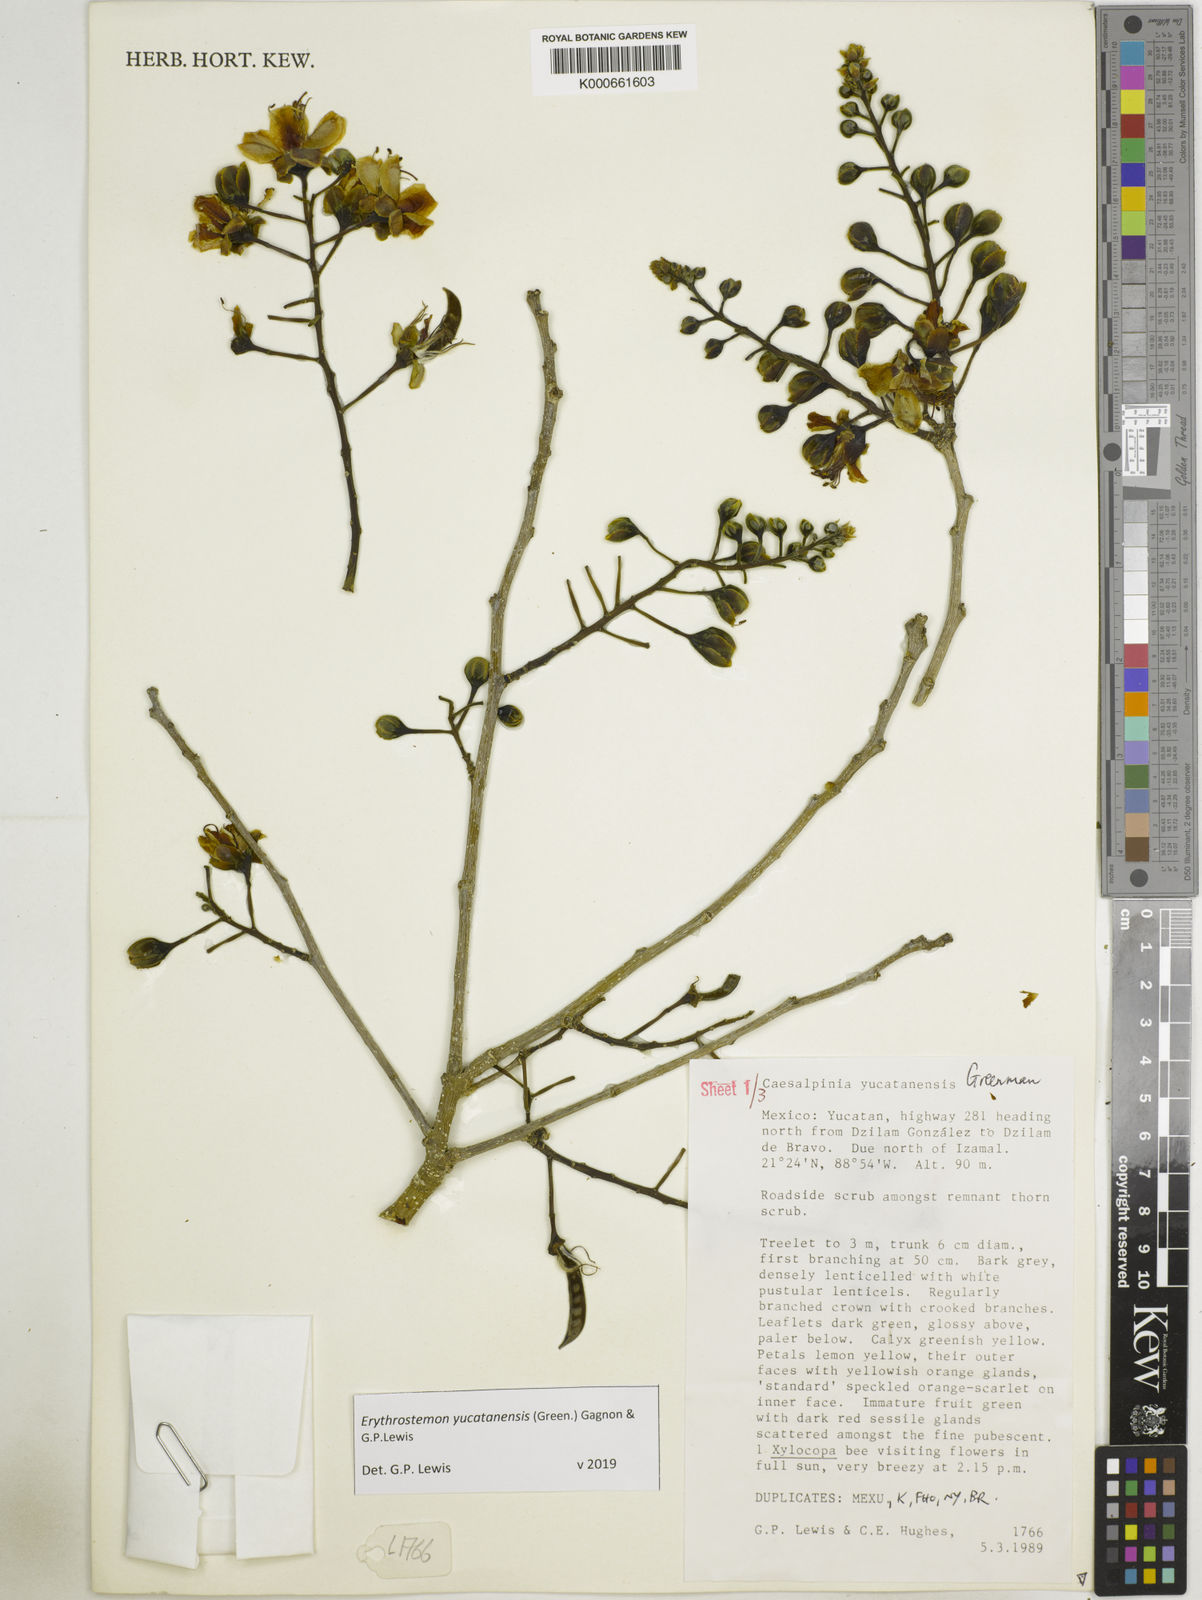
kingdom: Plantae
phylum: Tracheophyta
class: Magnoliopsida
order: Fabales
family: Fabaceae
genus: Caesalpinia
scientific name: Caesalpinia
